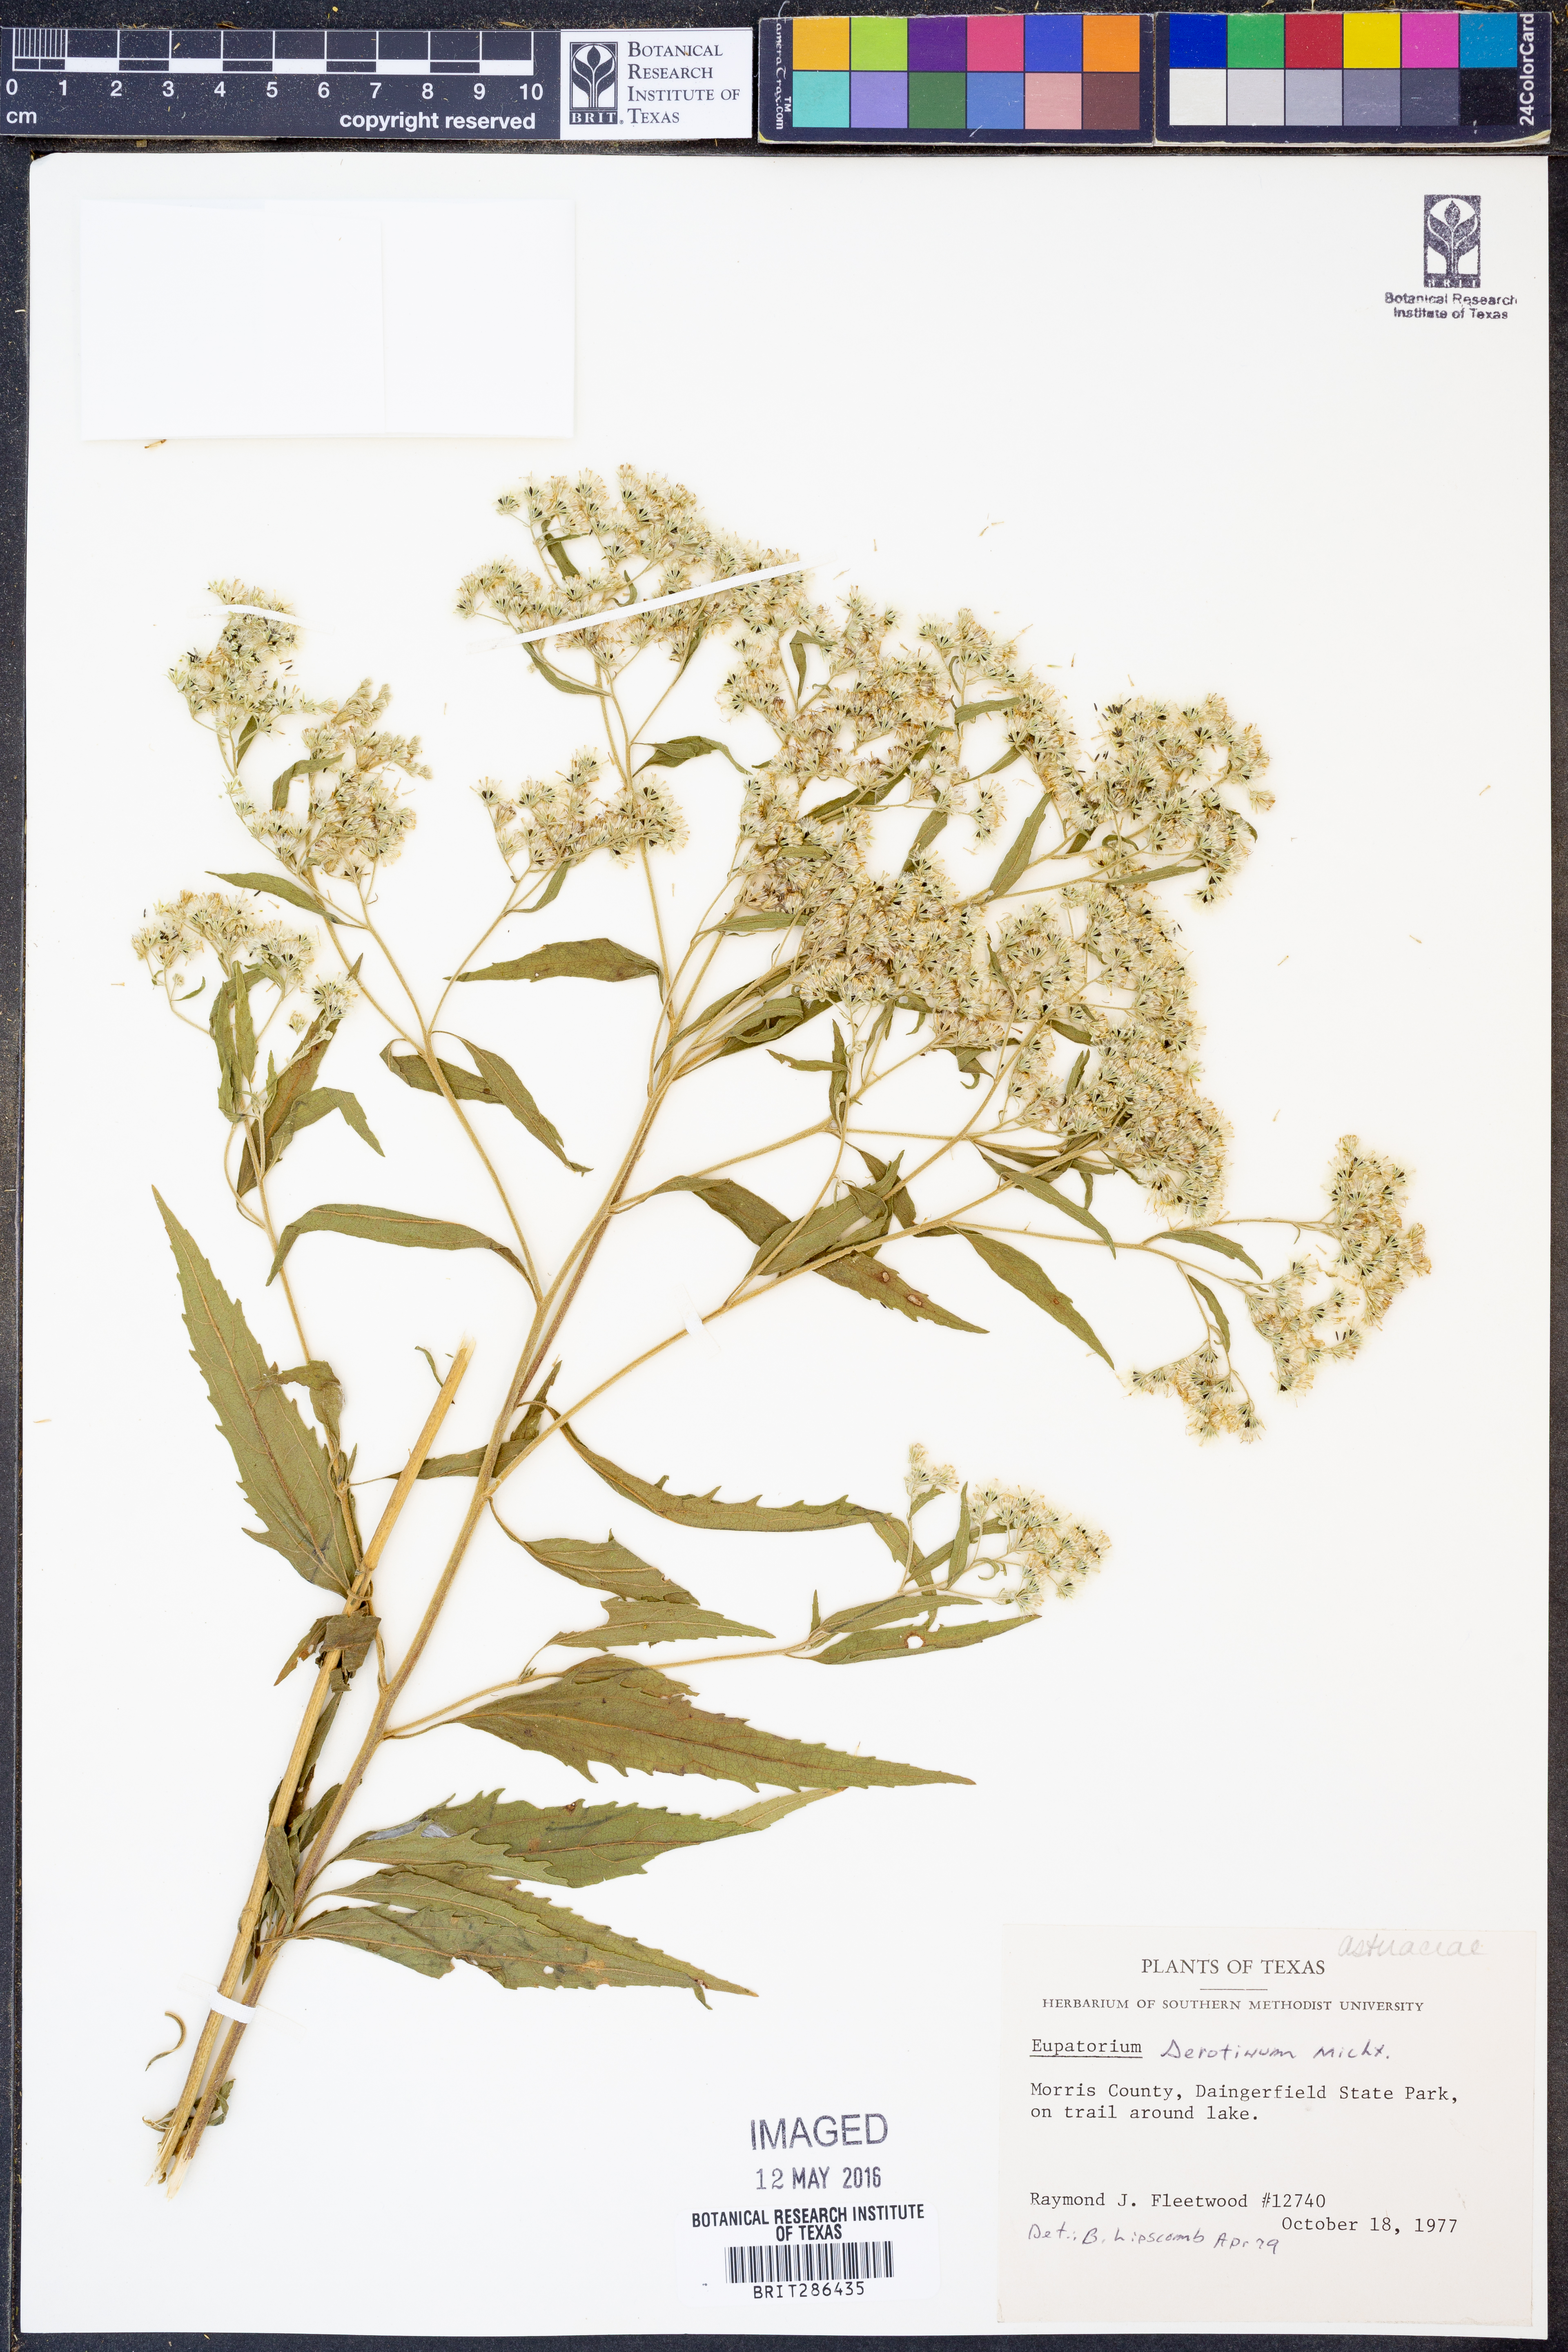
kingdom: Plantae
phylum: Tracheophyta
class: Magnoliopsida
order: Asterales
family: Asteraceae
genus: Eupatorium
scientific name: Eupatorium serotinum
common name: Late boneset
